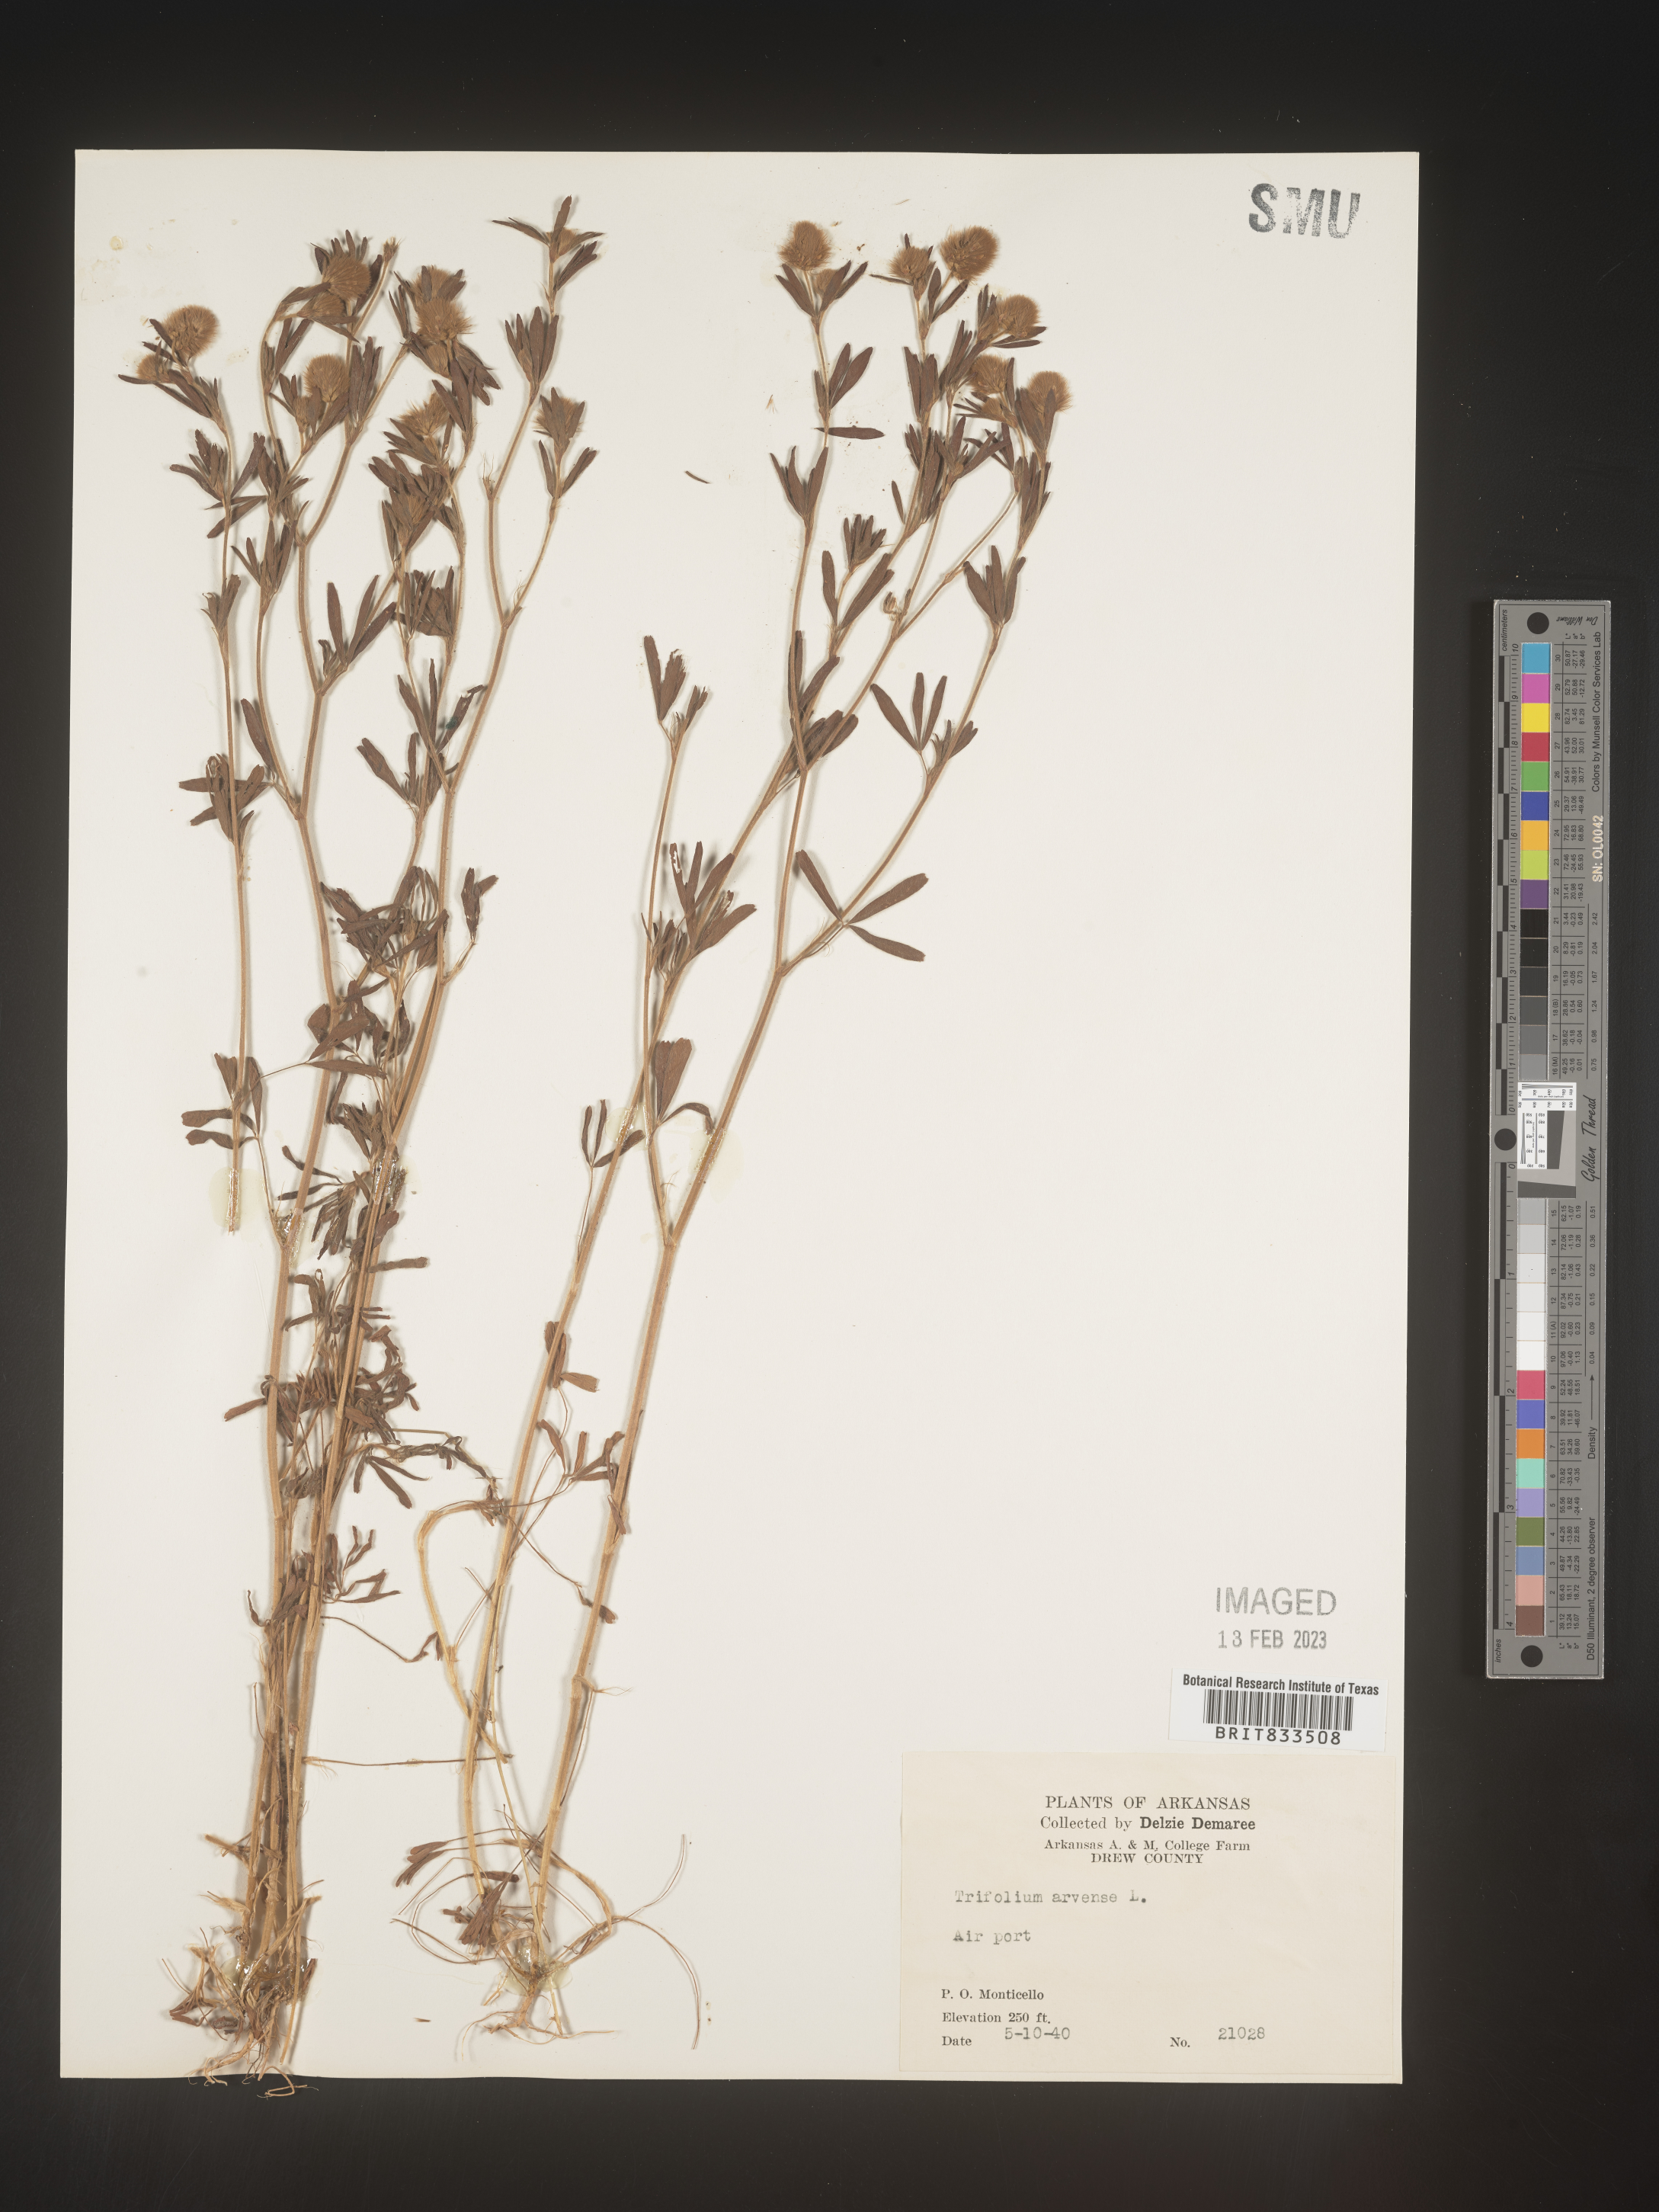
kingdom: Plantae
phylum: Tracheophyta
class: Magnoliopsida
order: Fabales
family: Fabaceae
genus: Trifolium
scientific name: Trifolium arvense
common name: Hare's-foot clover
